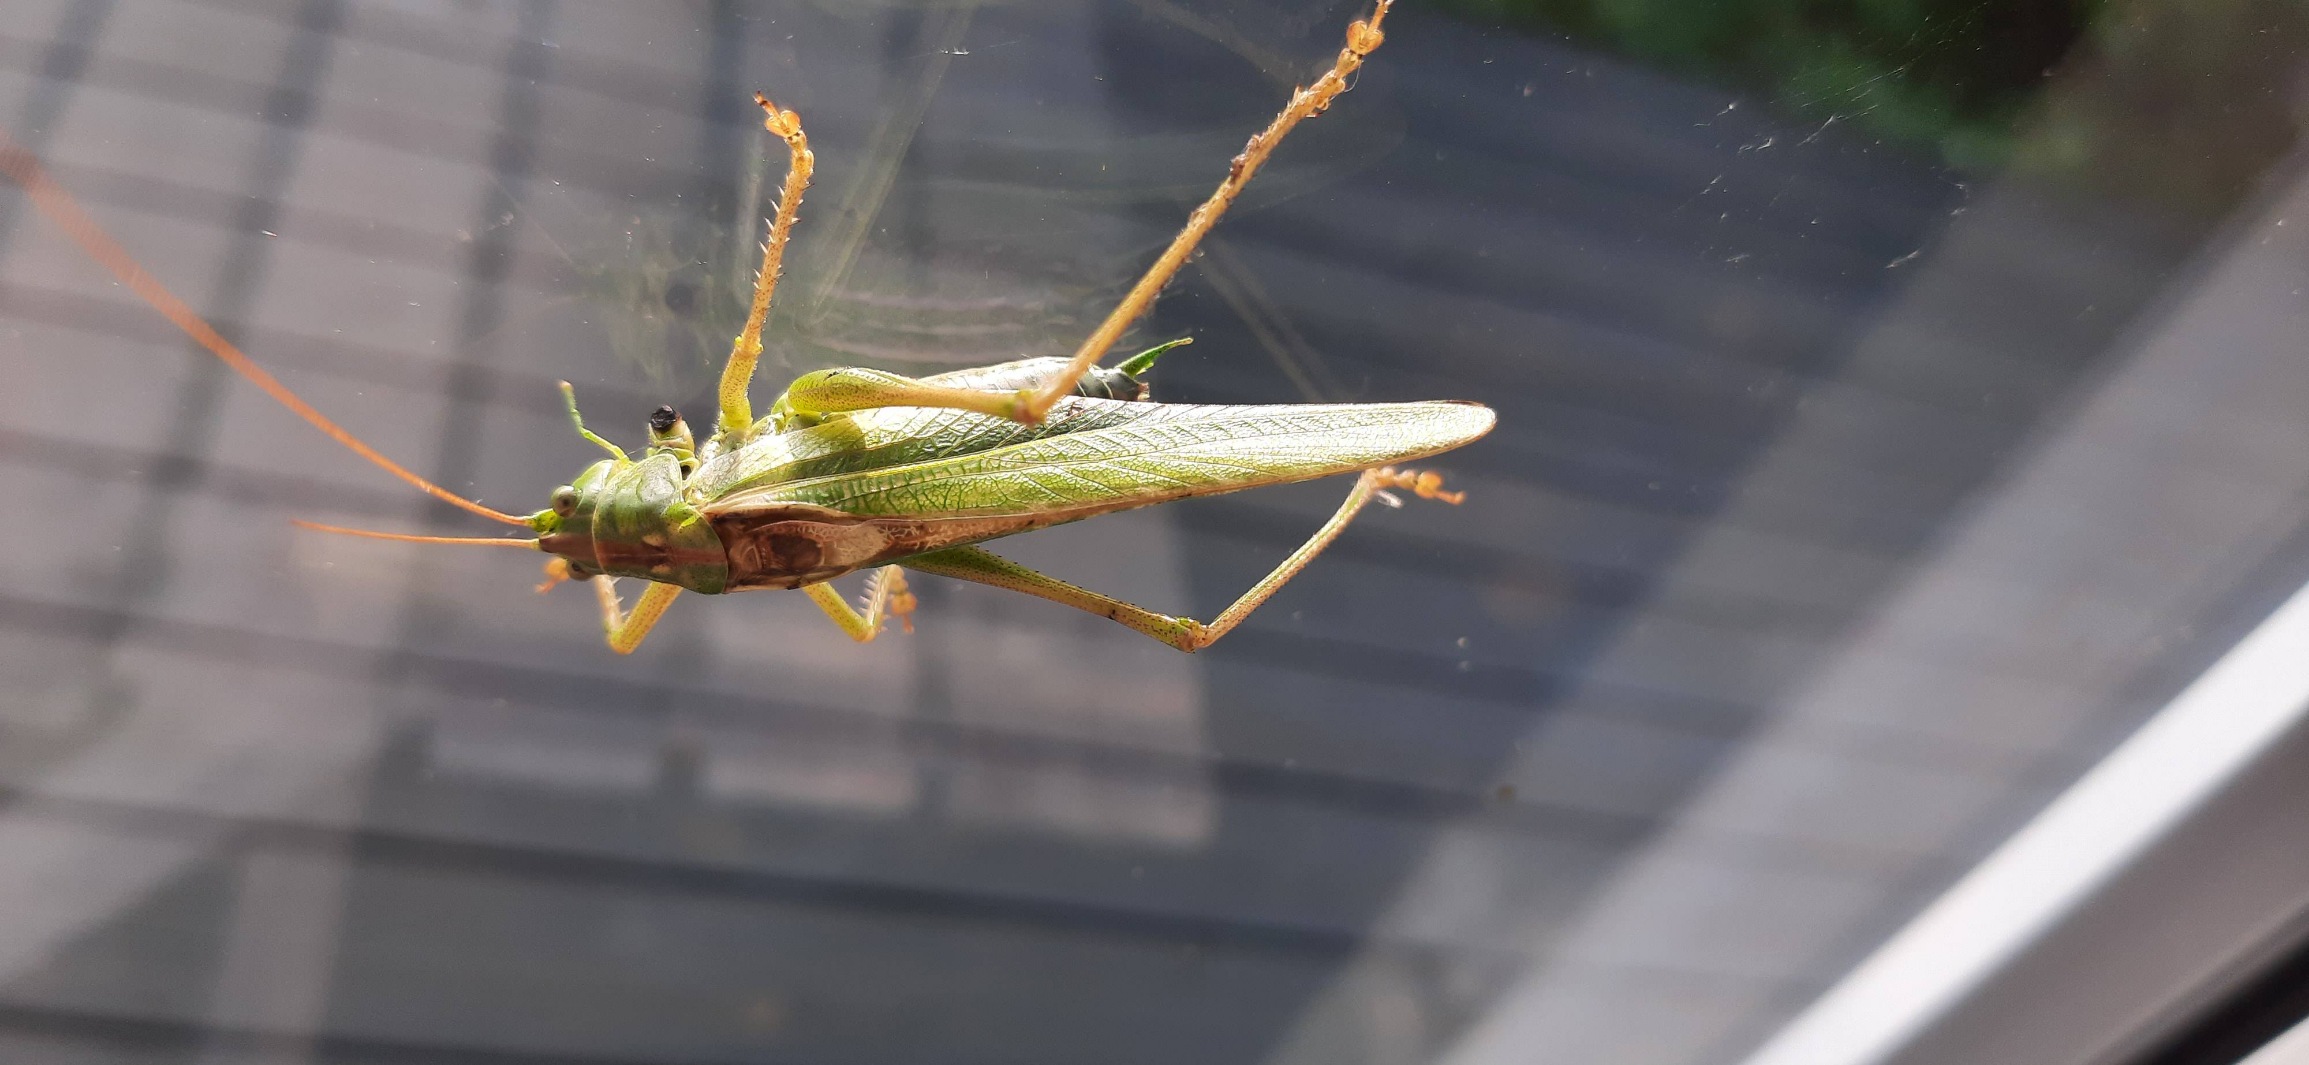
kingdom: Animalia
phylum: Arthropoda
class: Insecta
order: Orthoptera
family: Tettigoniidae
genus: Tettigonia
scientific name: Tettigonia viridissima
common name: Stor grøn løvgræshoppe
